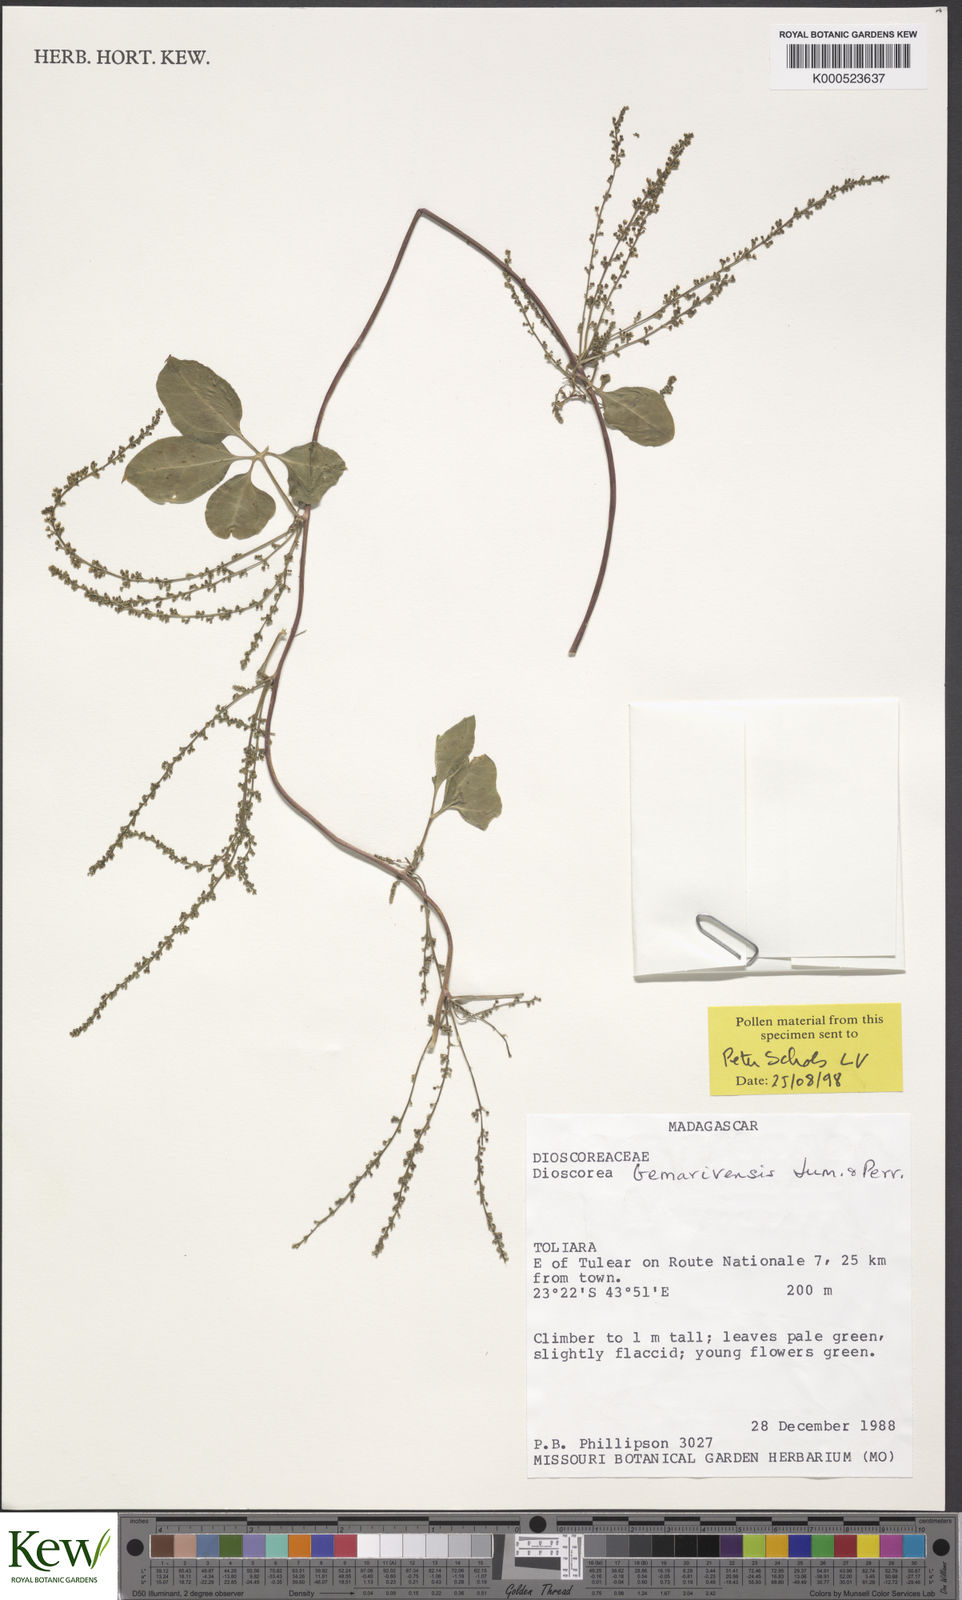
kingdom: Plantae
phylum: Tracheophyta
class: Liliopsida
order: Dioscoreales
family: Dioscoreaceae
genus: Dioscorea
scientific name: Dioscorea bemarivensis
